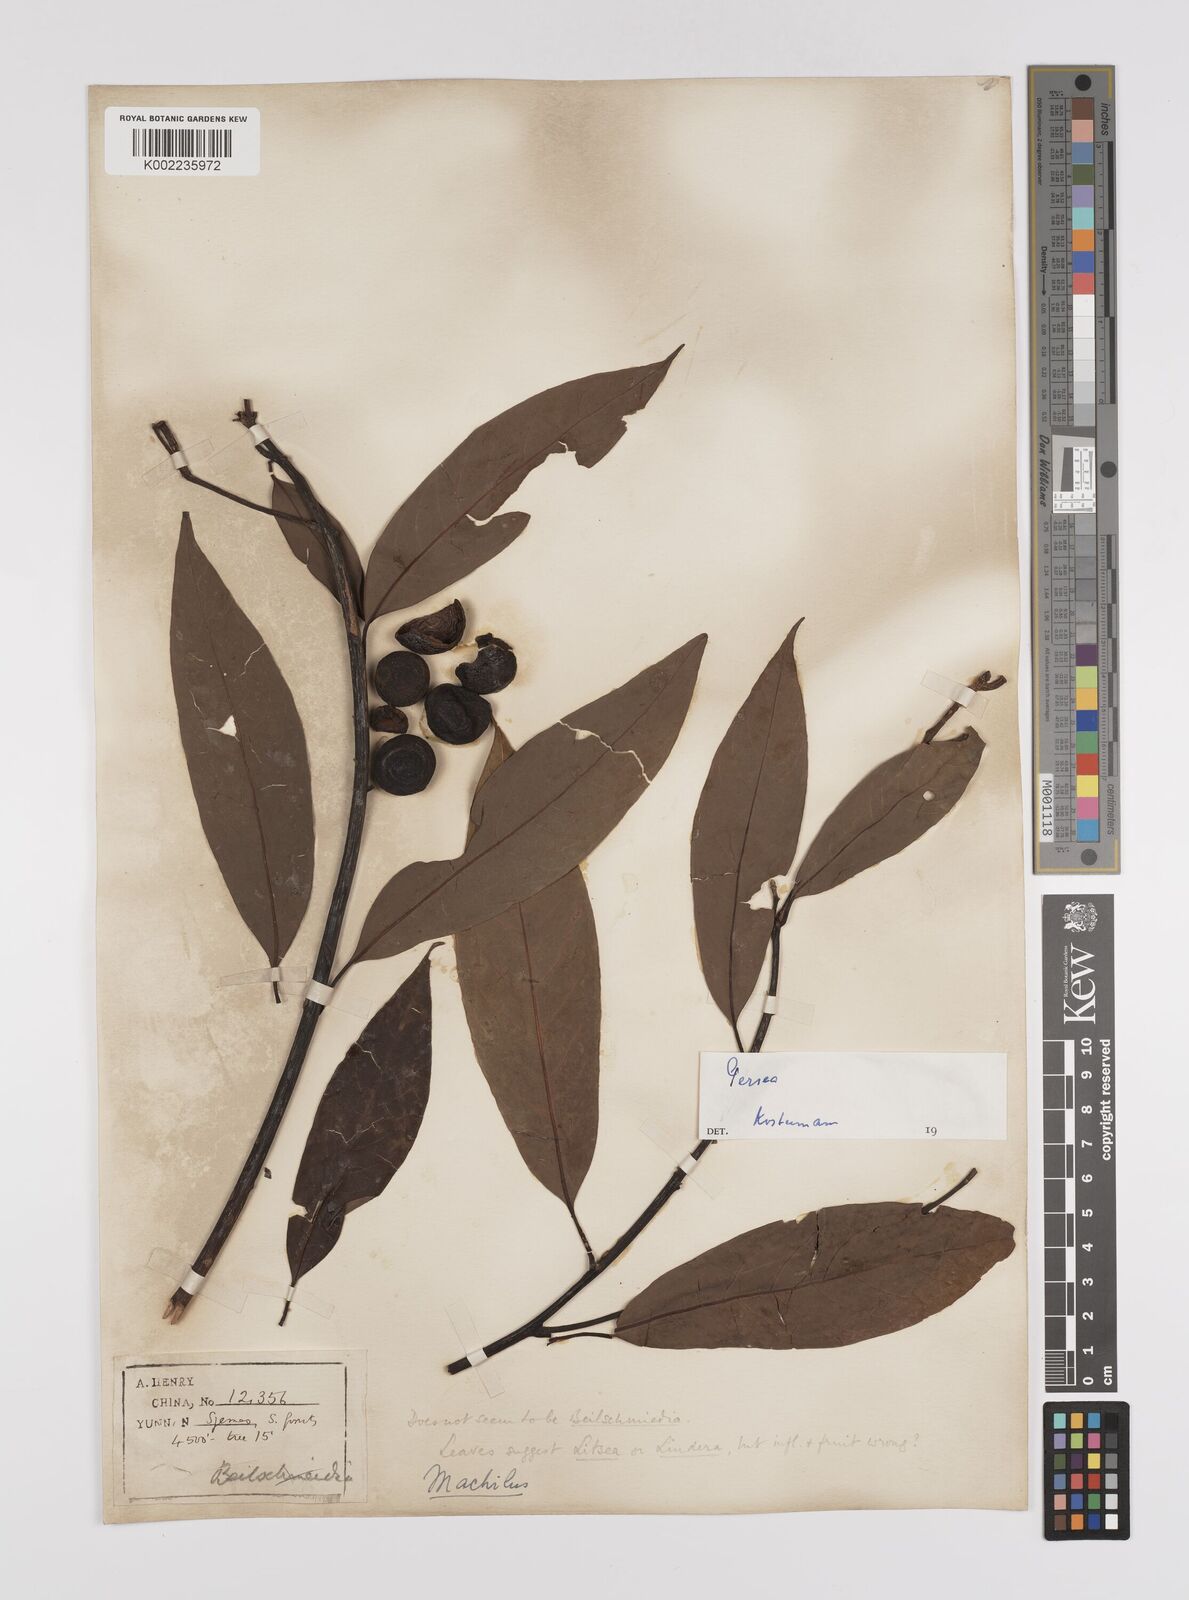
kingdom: Plantae
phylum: Tracheophyta
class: Magnoliopsida
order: Laurales
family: Lauraceae
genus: Persea
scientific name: Persea
